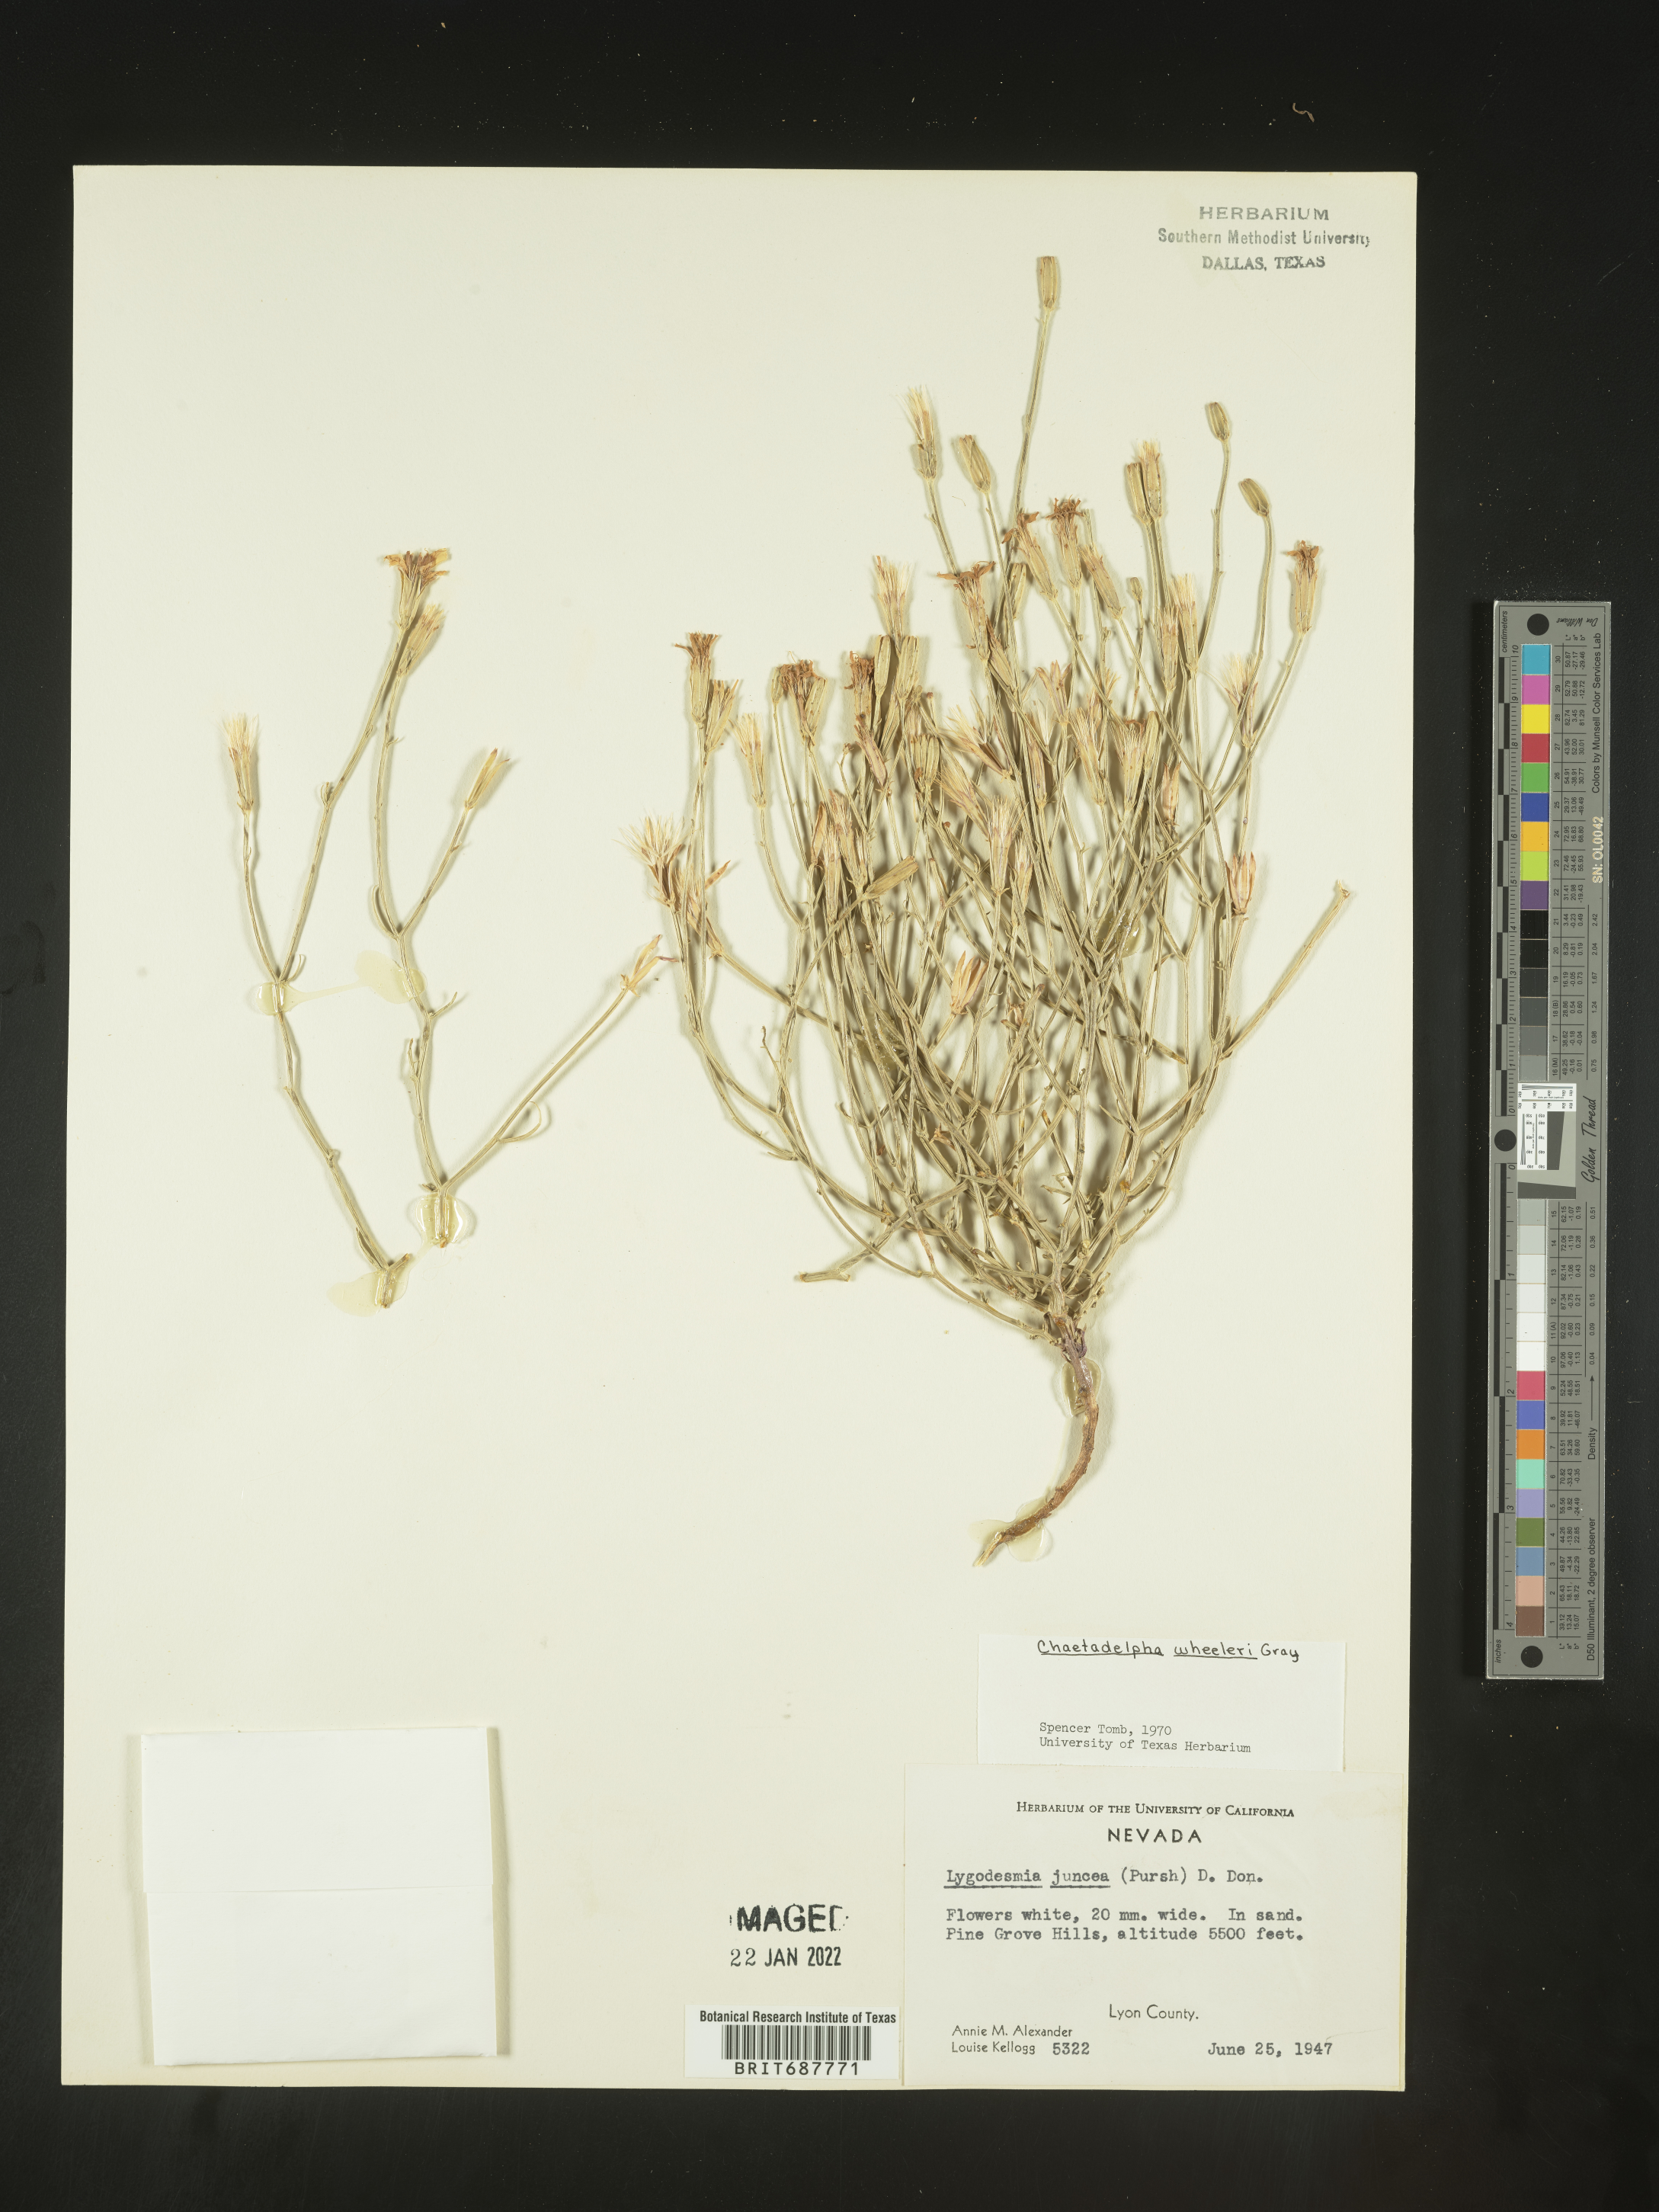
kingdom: Plantae
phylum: Tracheophyta
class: Magnoliopsida
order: Asterales
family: Asteraceae
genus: Chaetadelpha
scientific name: Chaetadelpha wheeleri
